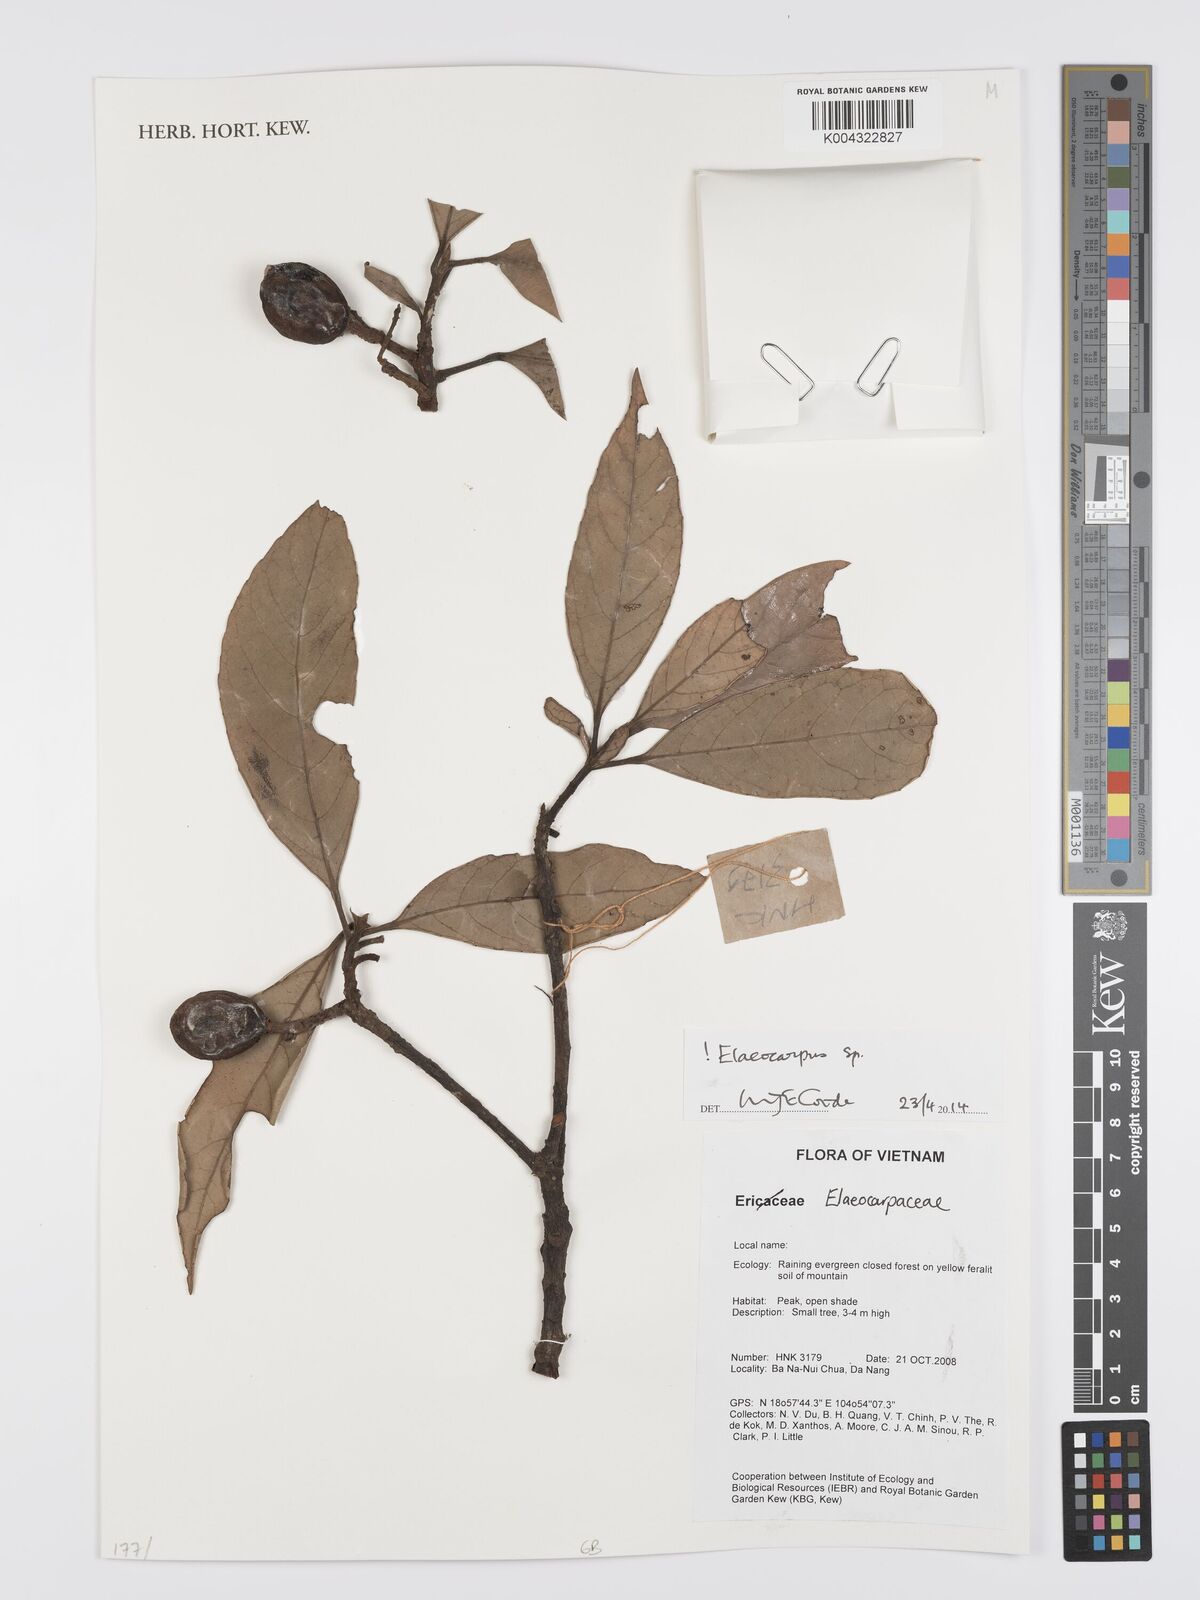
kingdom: Plantae
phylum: Tracheophyta
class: Magnoliopsida
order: Oxalidales
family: Elaeocarpaceae
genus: Elaeocarpus
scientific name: Elaeocarpus
